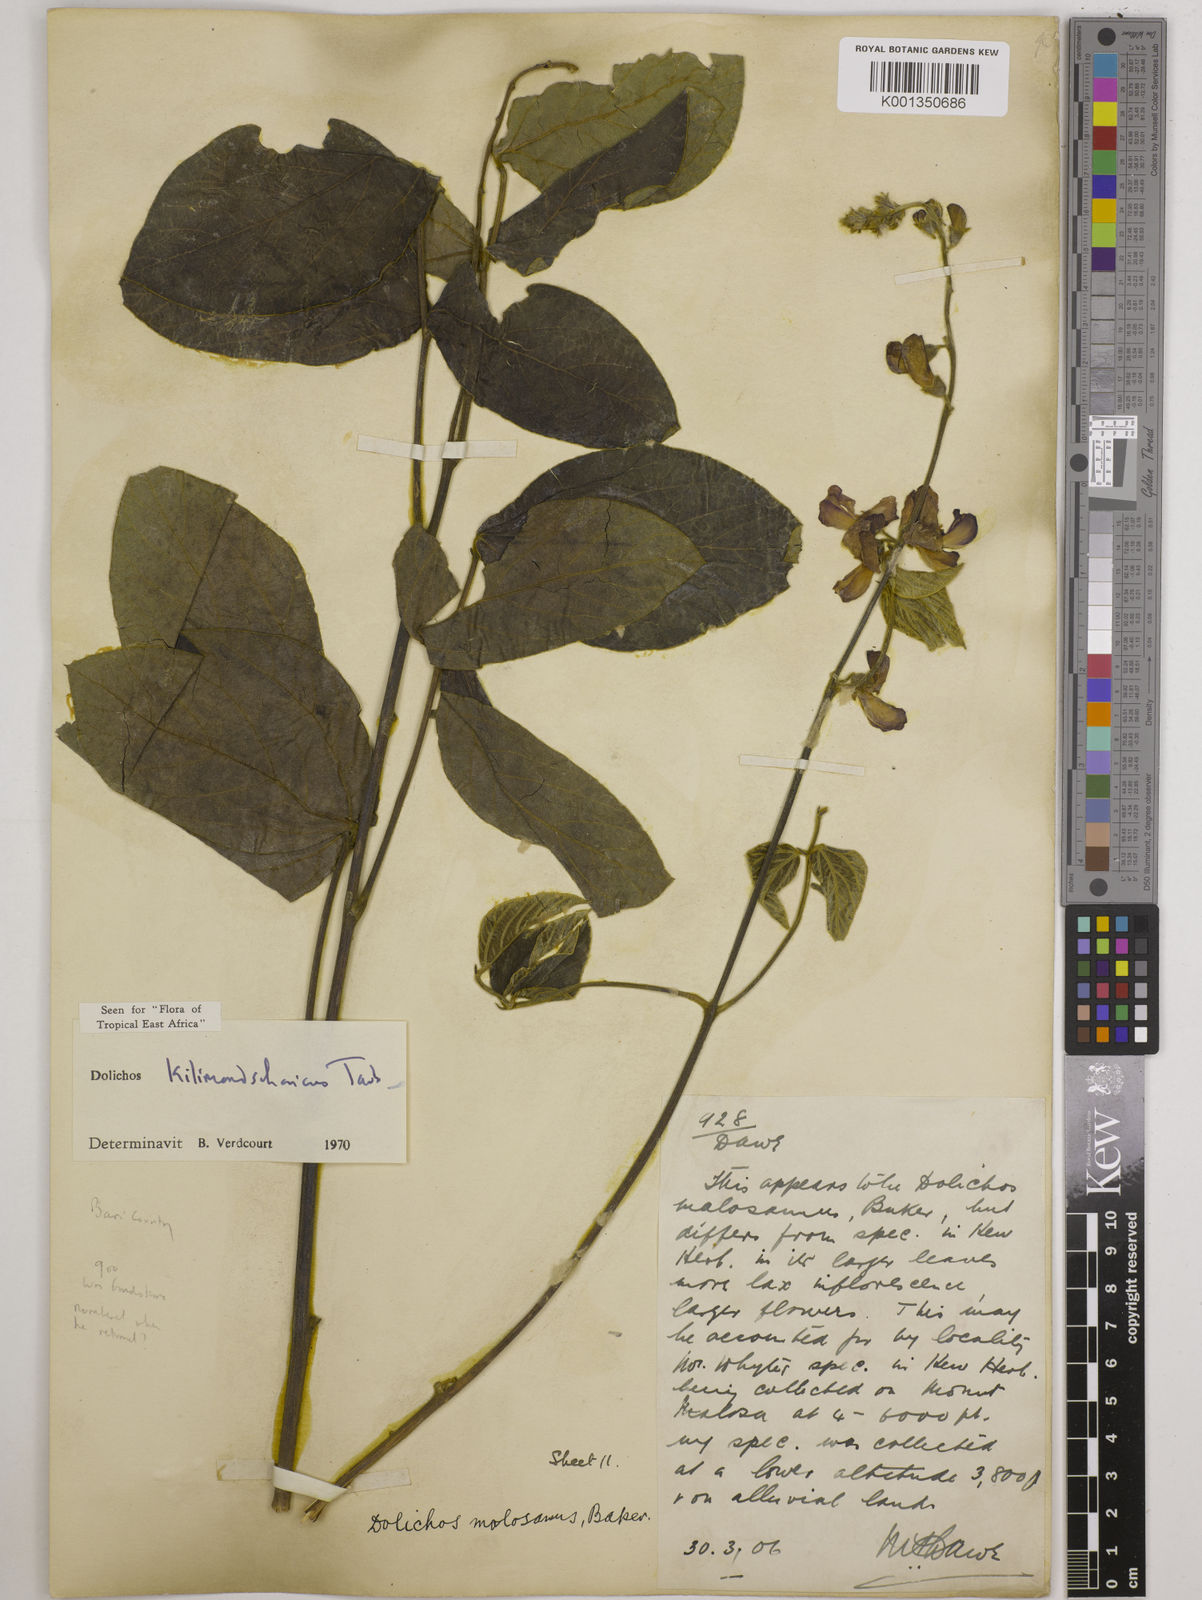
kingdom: Plantae
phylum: Tracheophyta
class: Magnoliopsida
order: Fabales
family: Fabaceae
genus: Dolichos
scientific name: Dolichos kilimandscharicus
